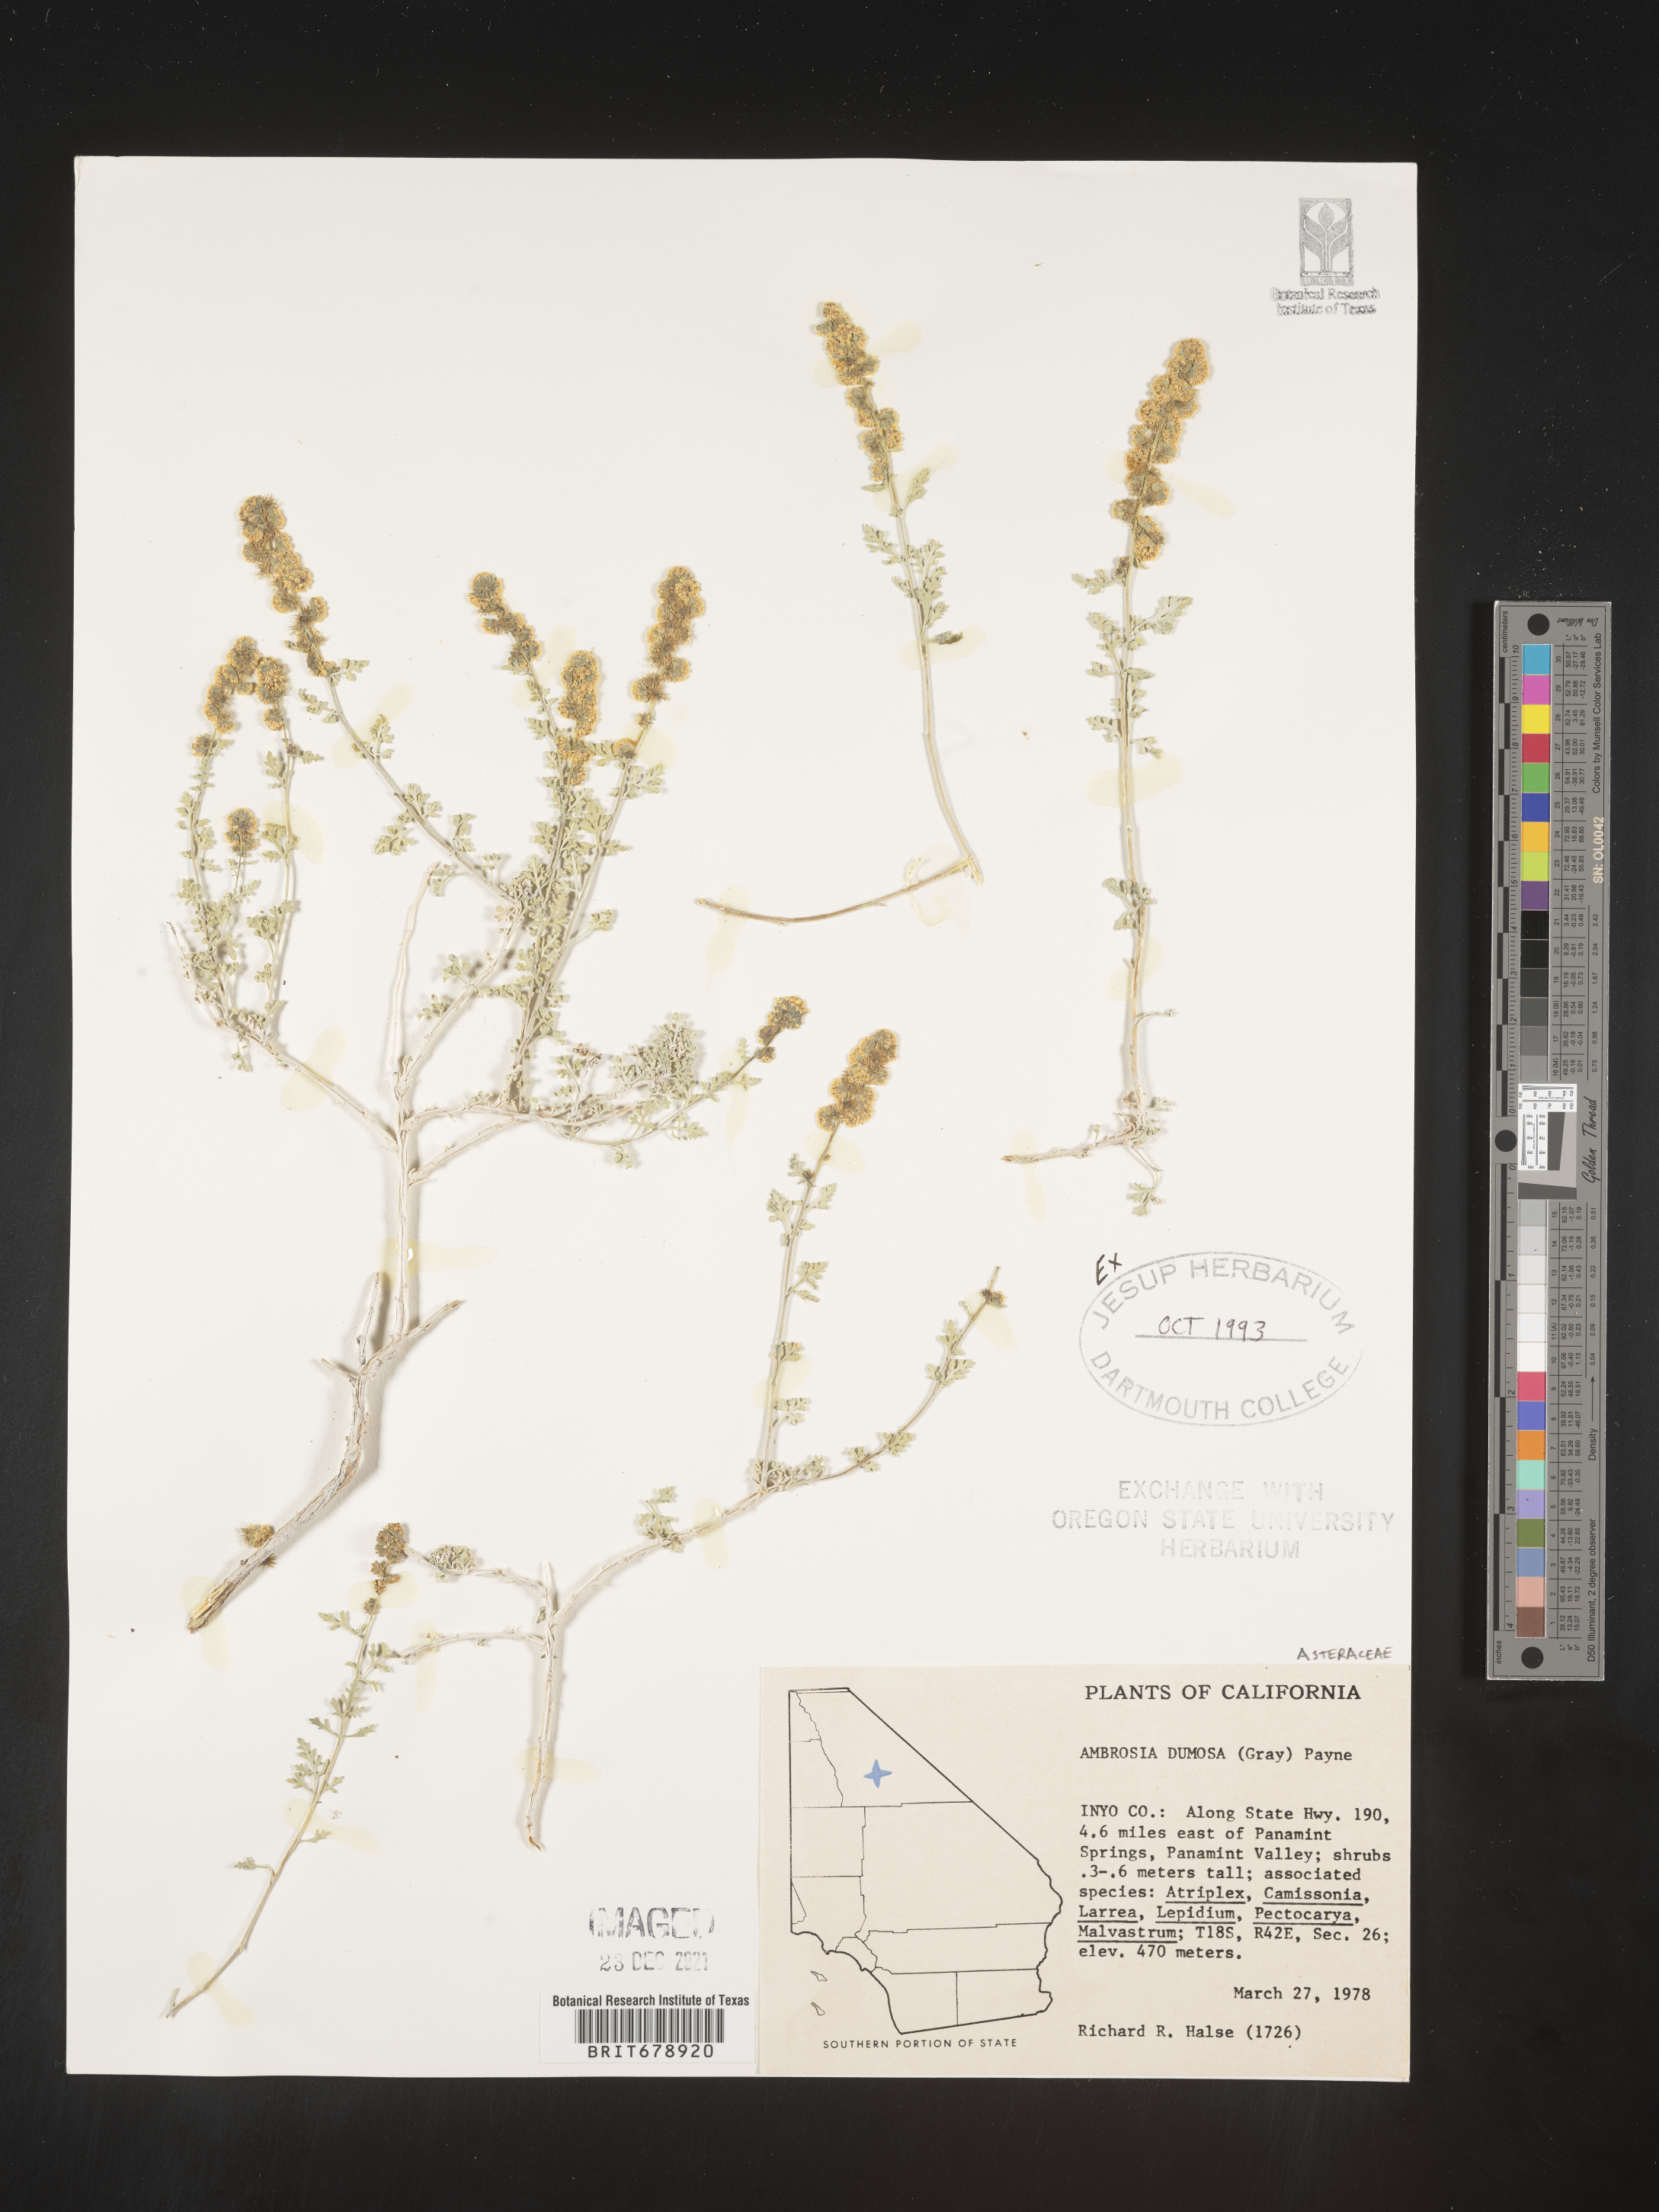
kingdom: Plantae
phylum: Tracheophyta
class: Magnoliopsida
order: Asterales
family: Asteraceae
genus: Ambrosia
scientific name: Ambrosia dumosa
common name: Bur-sage
